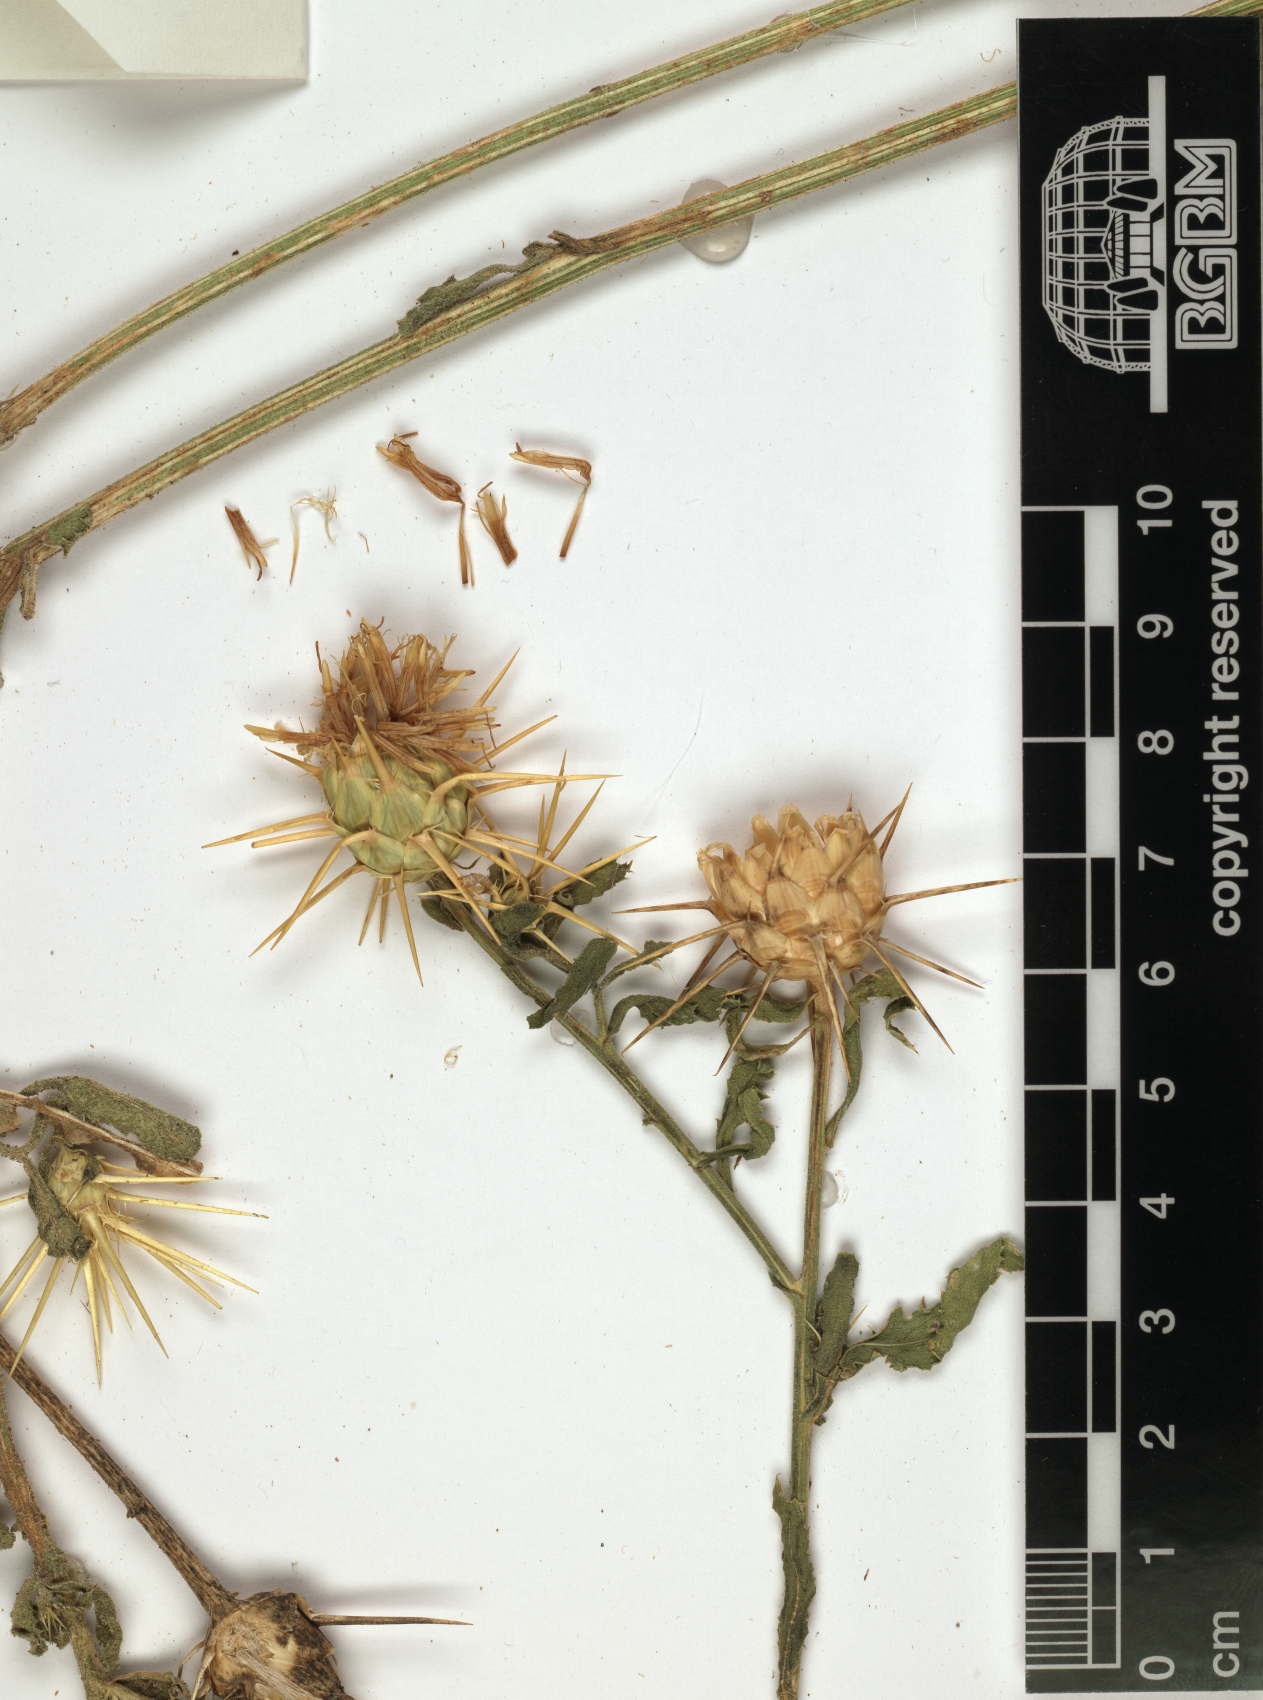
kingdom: Plantae
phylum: Tracheophyta
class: Magnoliopsida
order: Asterales
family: Asteraceae
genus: Centaurea
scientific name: Centaurea dhofarica
